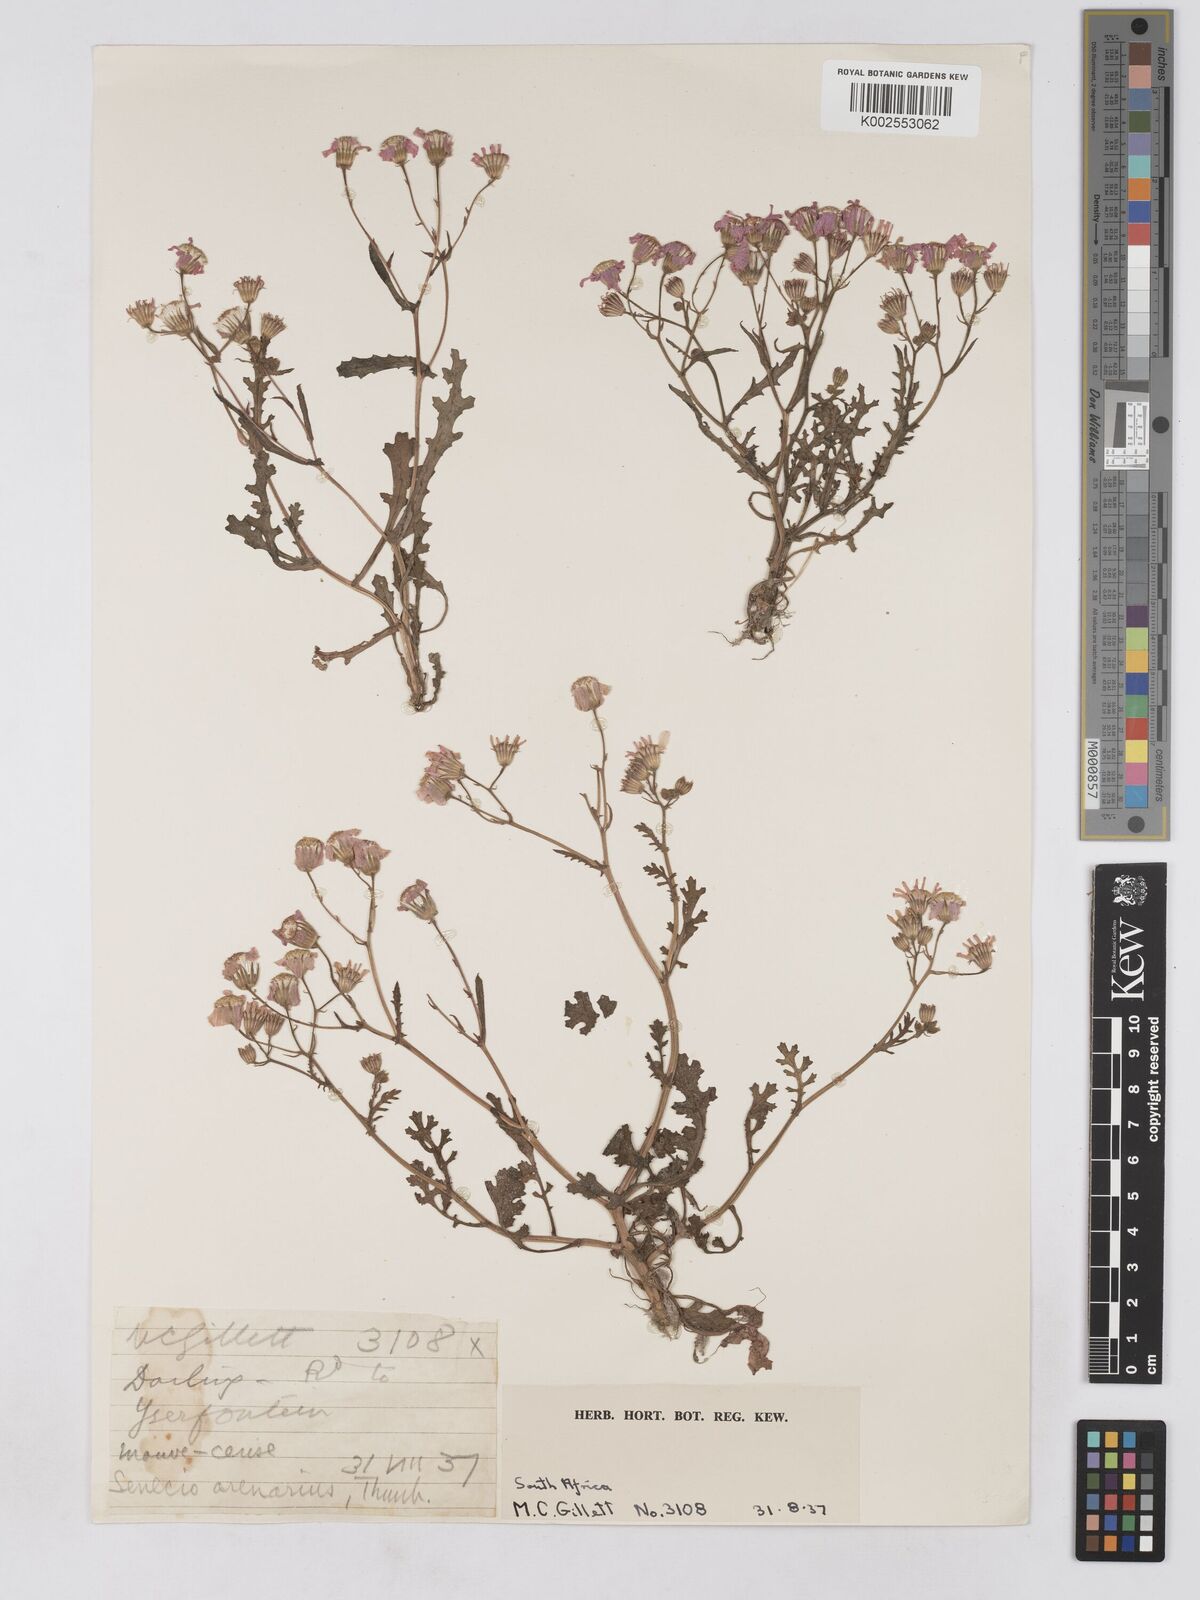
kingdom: Plantae
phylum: Tracheophyta
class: Magnoliopsida
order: Asterales
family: Asteraceae
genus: Senecio
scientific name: Senecio arenarius
